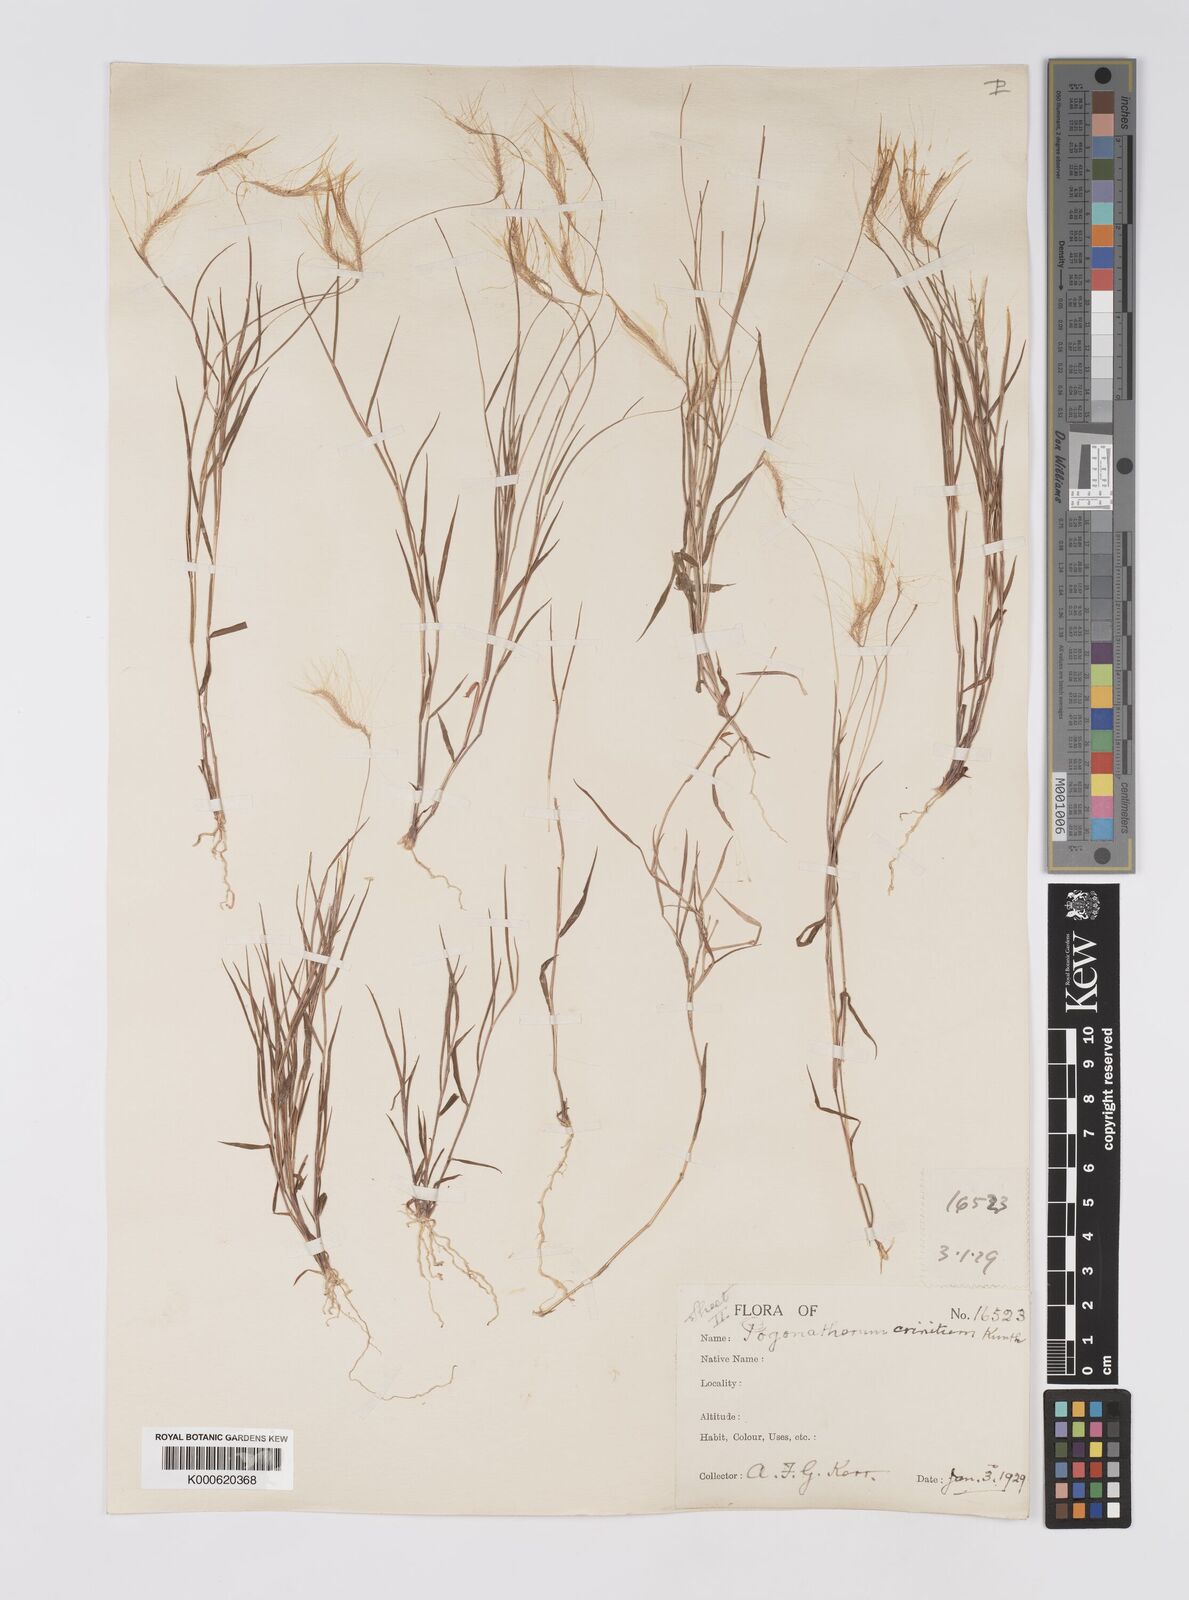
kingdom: Plantae
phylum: Tracheophyta
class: Liliopsida
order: Poales
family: Poaceae
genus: Pogonatherum
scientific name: Pogonatherum crinitum
